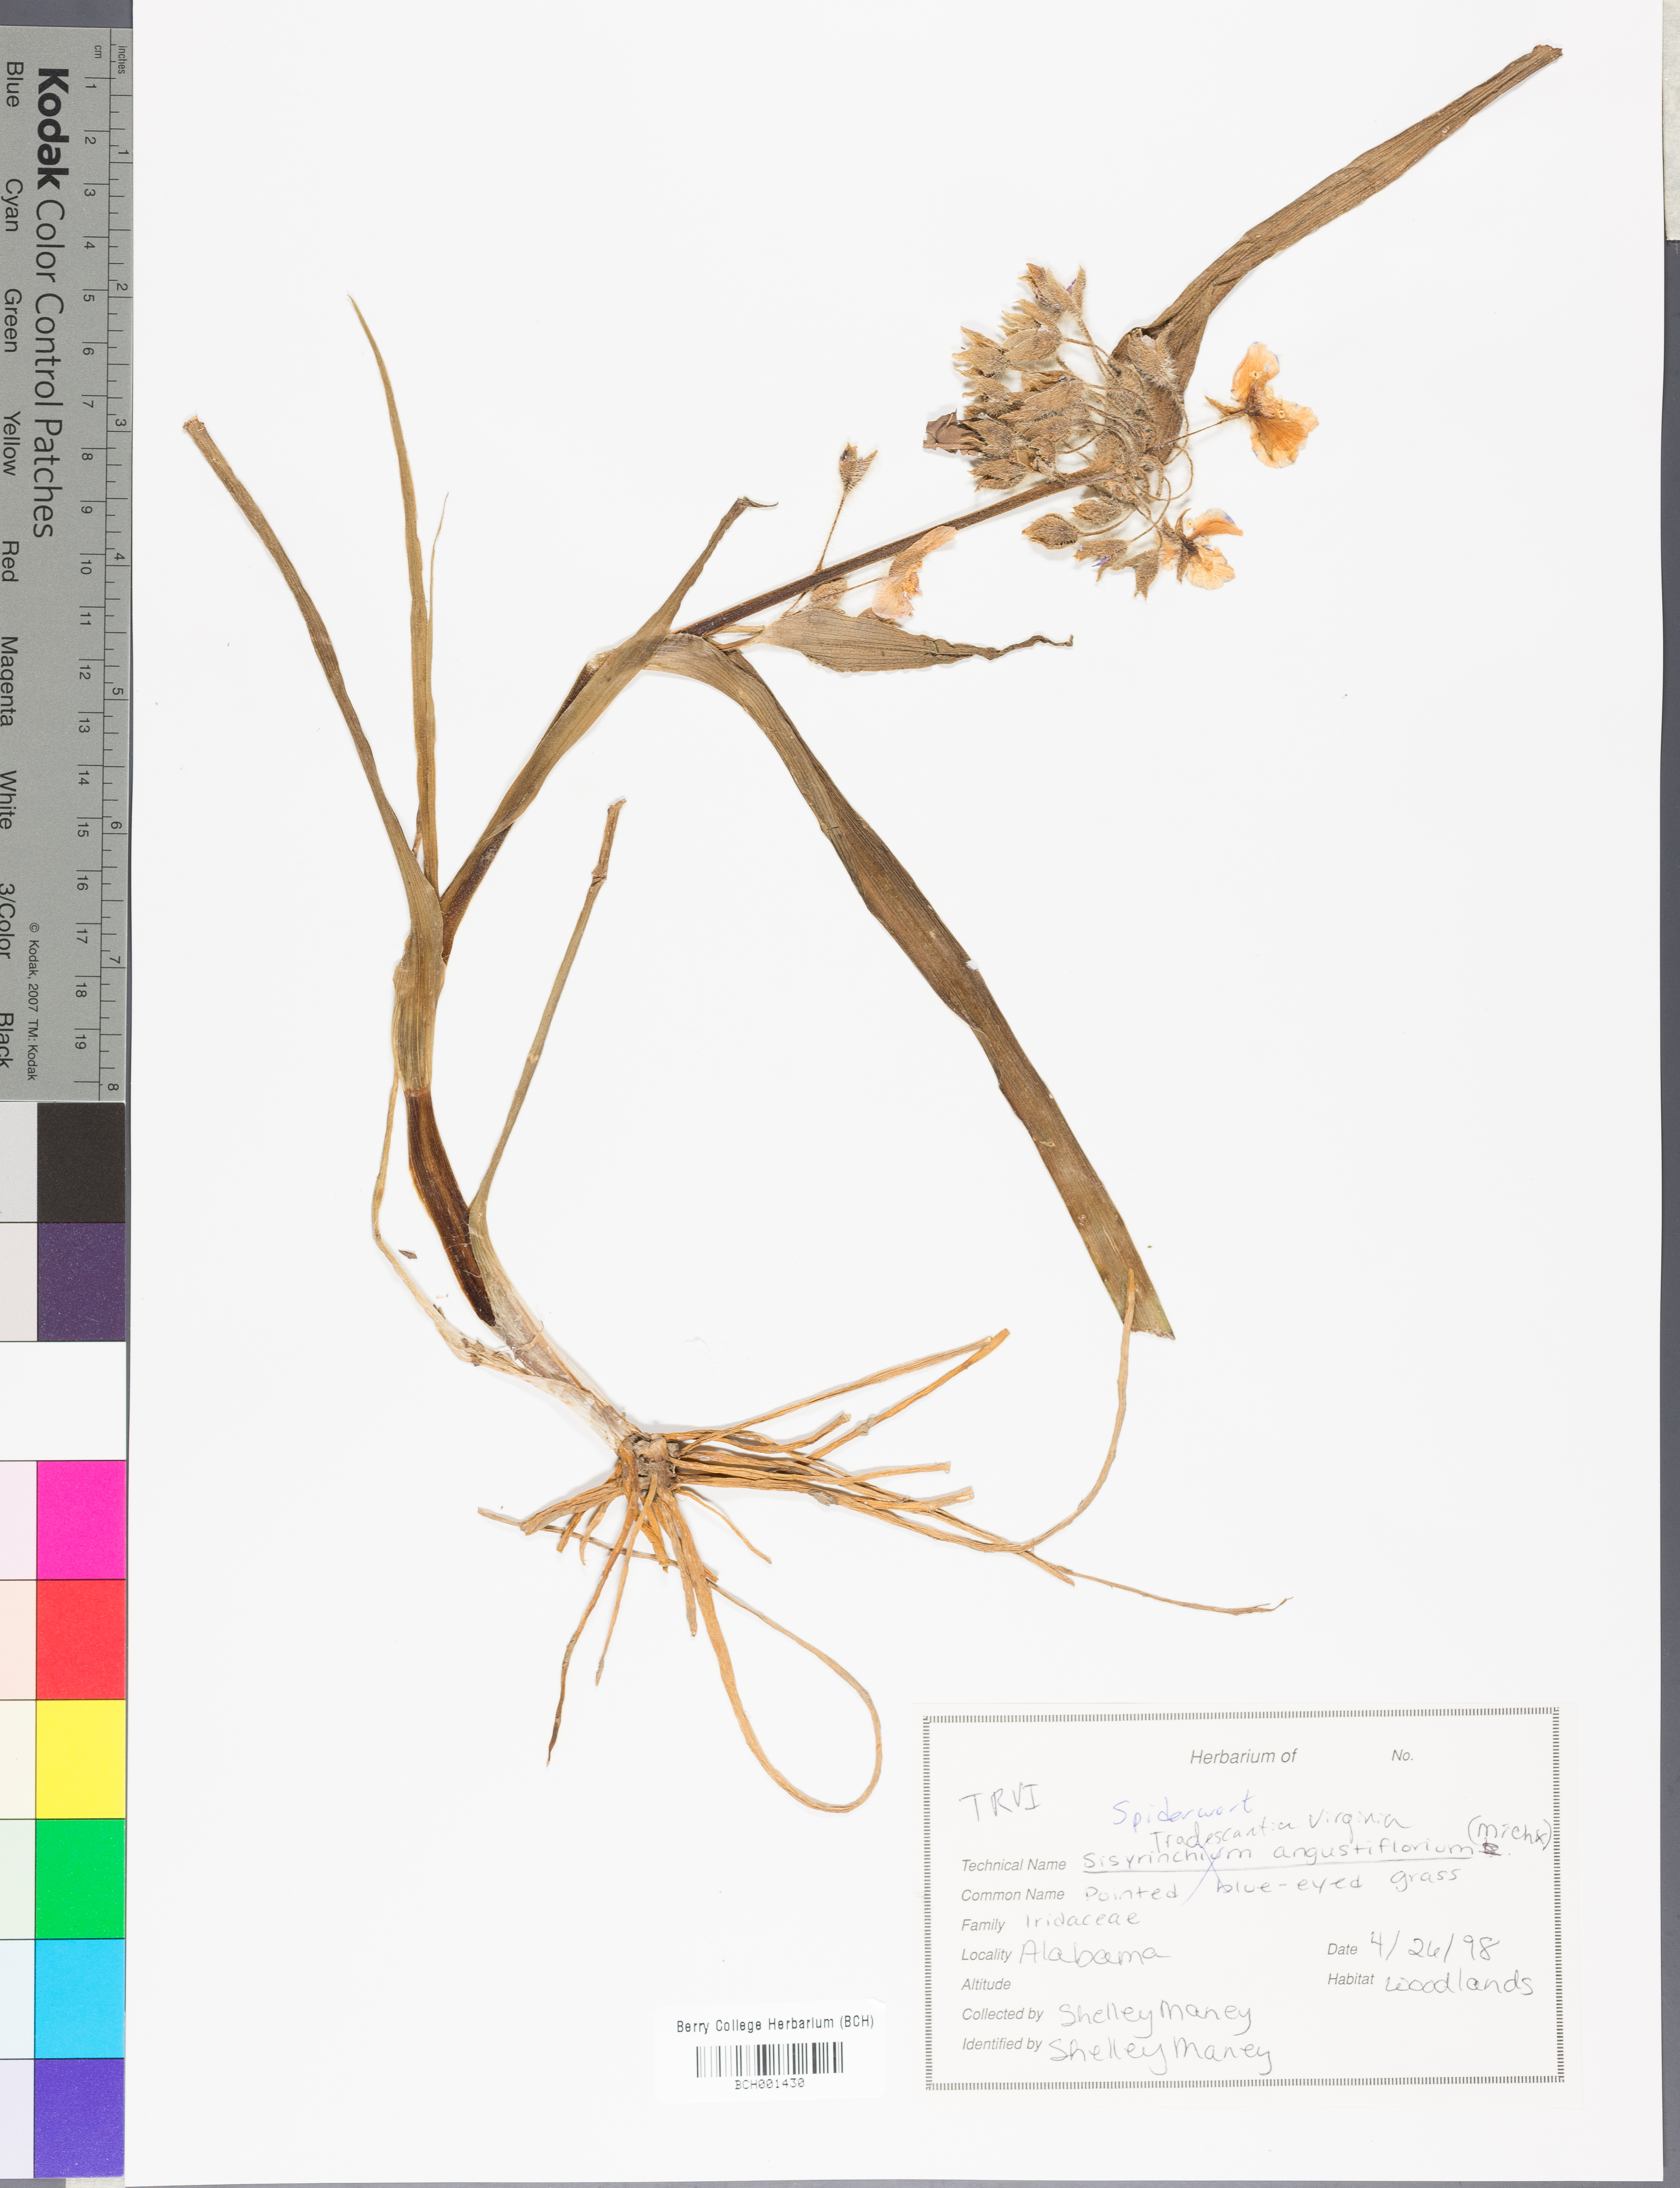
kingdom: Plantae
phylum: Tracheophyta
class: Liliopsida
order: Commelinales
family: Commelinaceae
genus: Tradescantia
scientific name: Tradescantia virginiana
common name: Spiderwort
